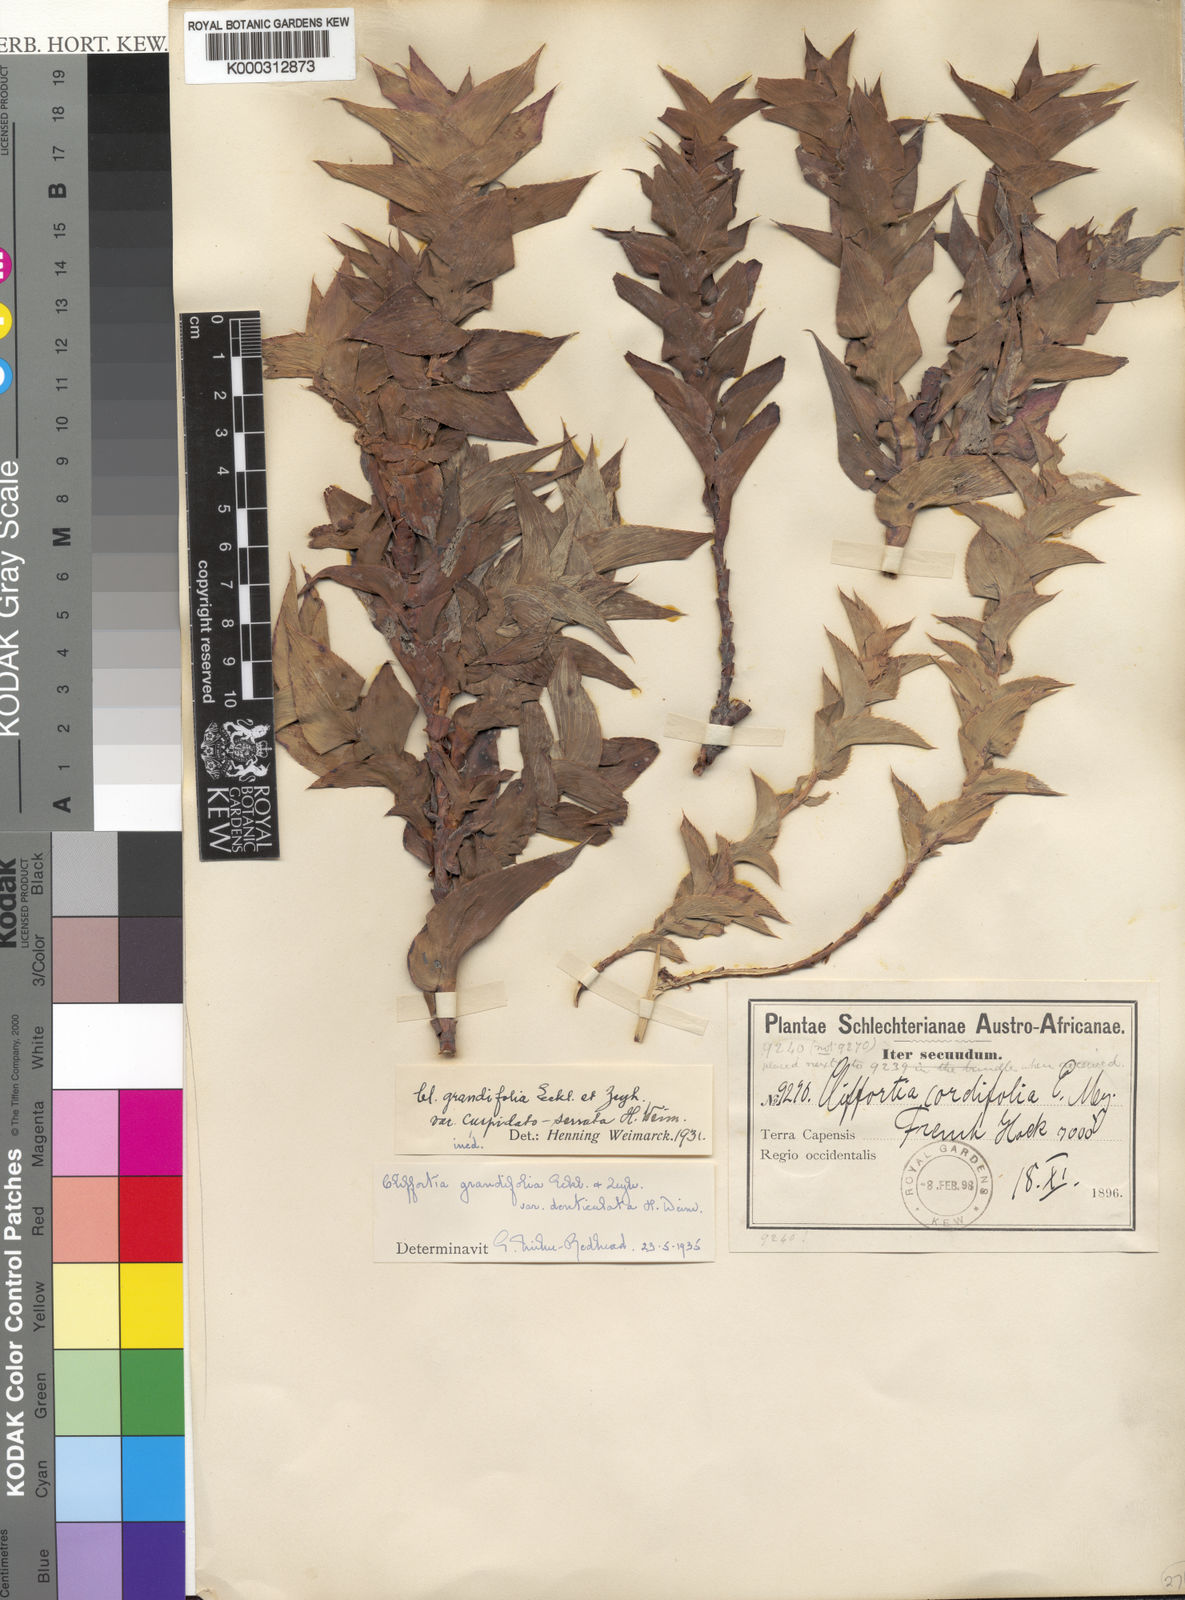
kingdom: Plantae
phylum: Tracheophyta
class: Magnoliopsida
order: Rosales
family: Rosaceae
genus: Cliffortia
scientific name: Cliffortia
